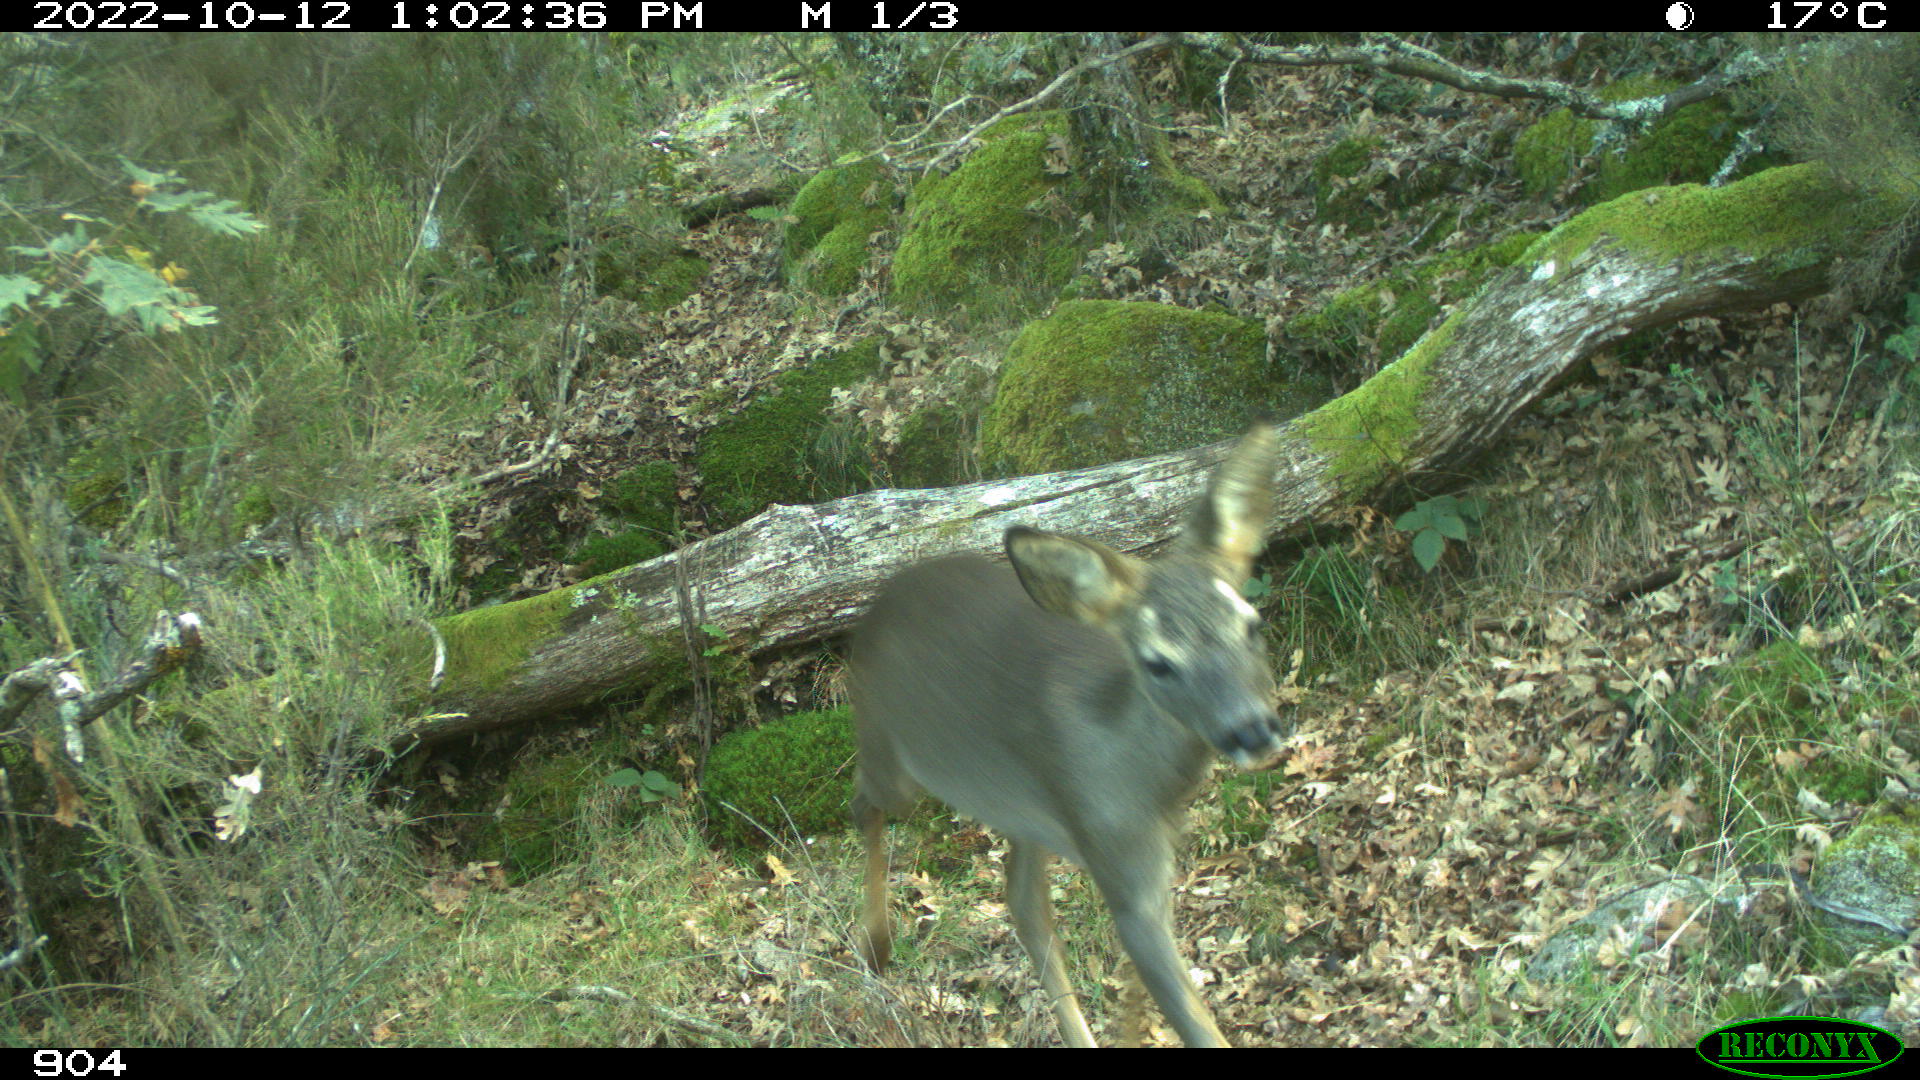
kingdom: Animalia
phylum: Chordata
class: Mammalia
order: Artiodactyla
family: Cervidae
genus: Capreolus
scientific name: Capreolus capreolus
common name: Western roe deer
